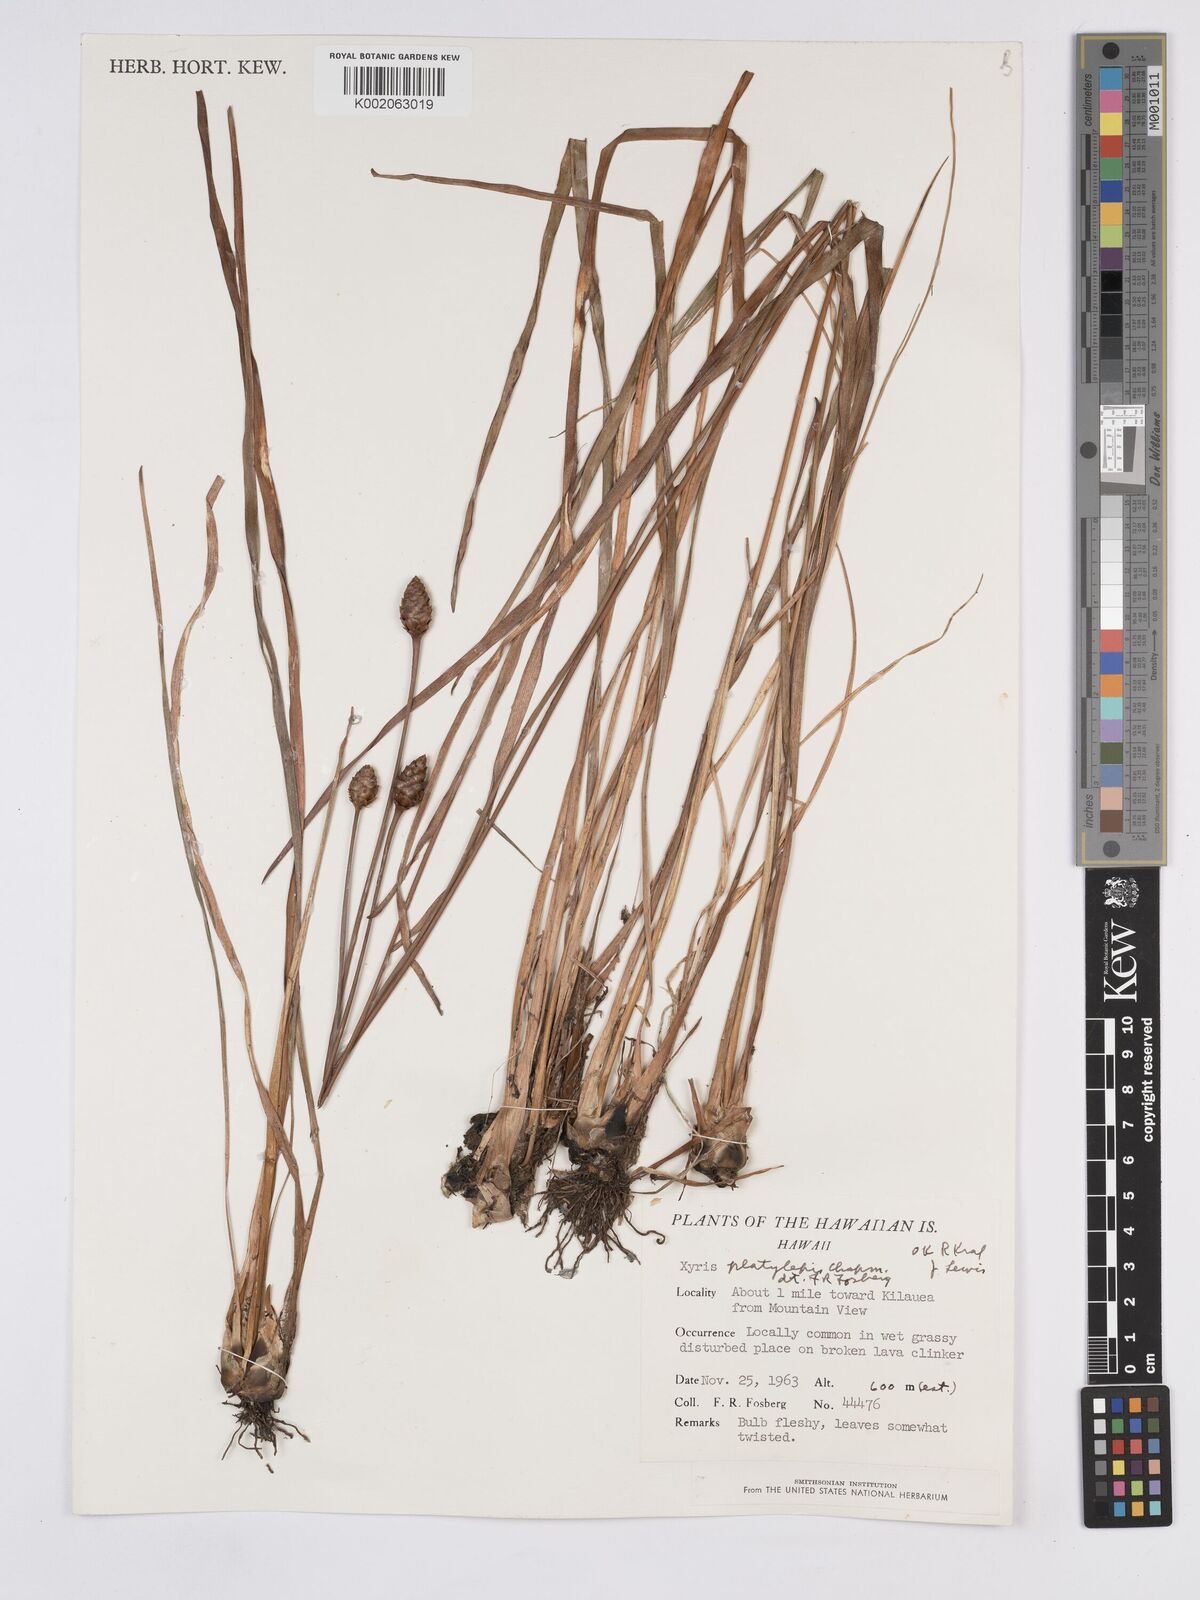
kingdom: Plantae
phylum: Tracheophyta
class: Liliopsida
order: Poales
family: Xyridaceae
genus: Xyris
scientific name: Xyris platylepis
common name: Tall yelloweyed grass
